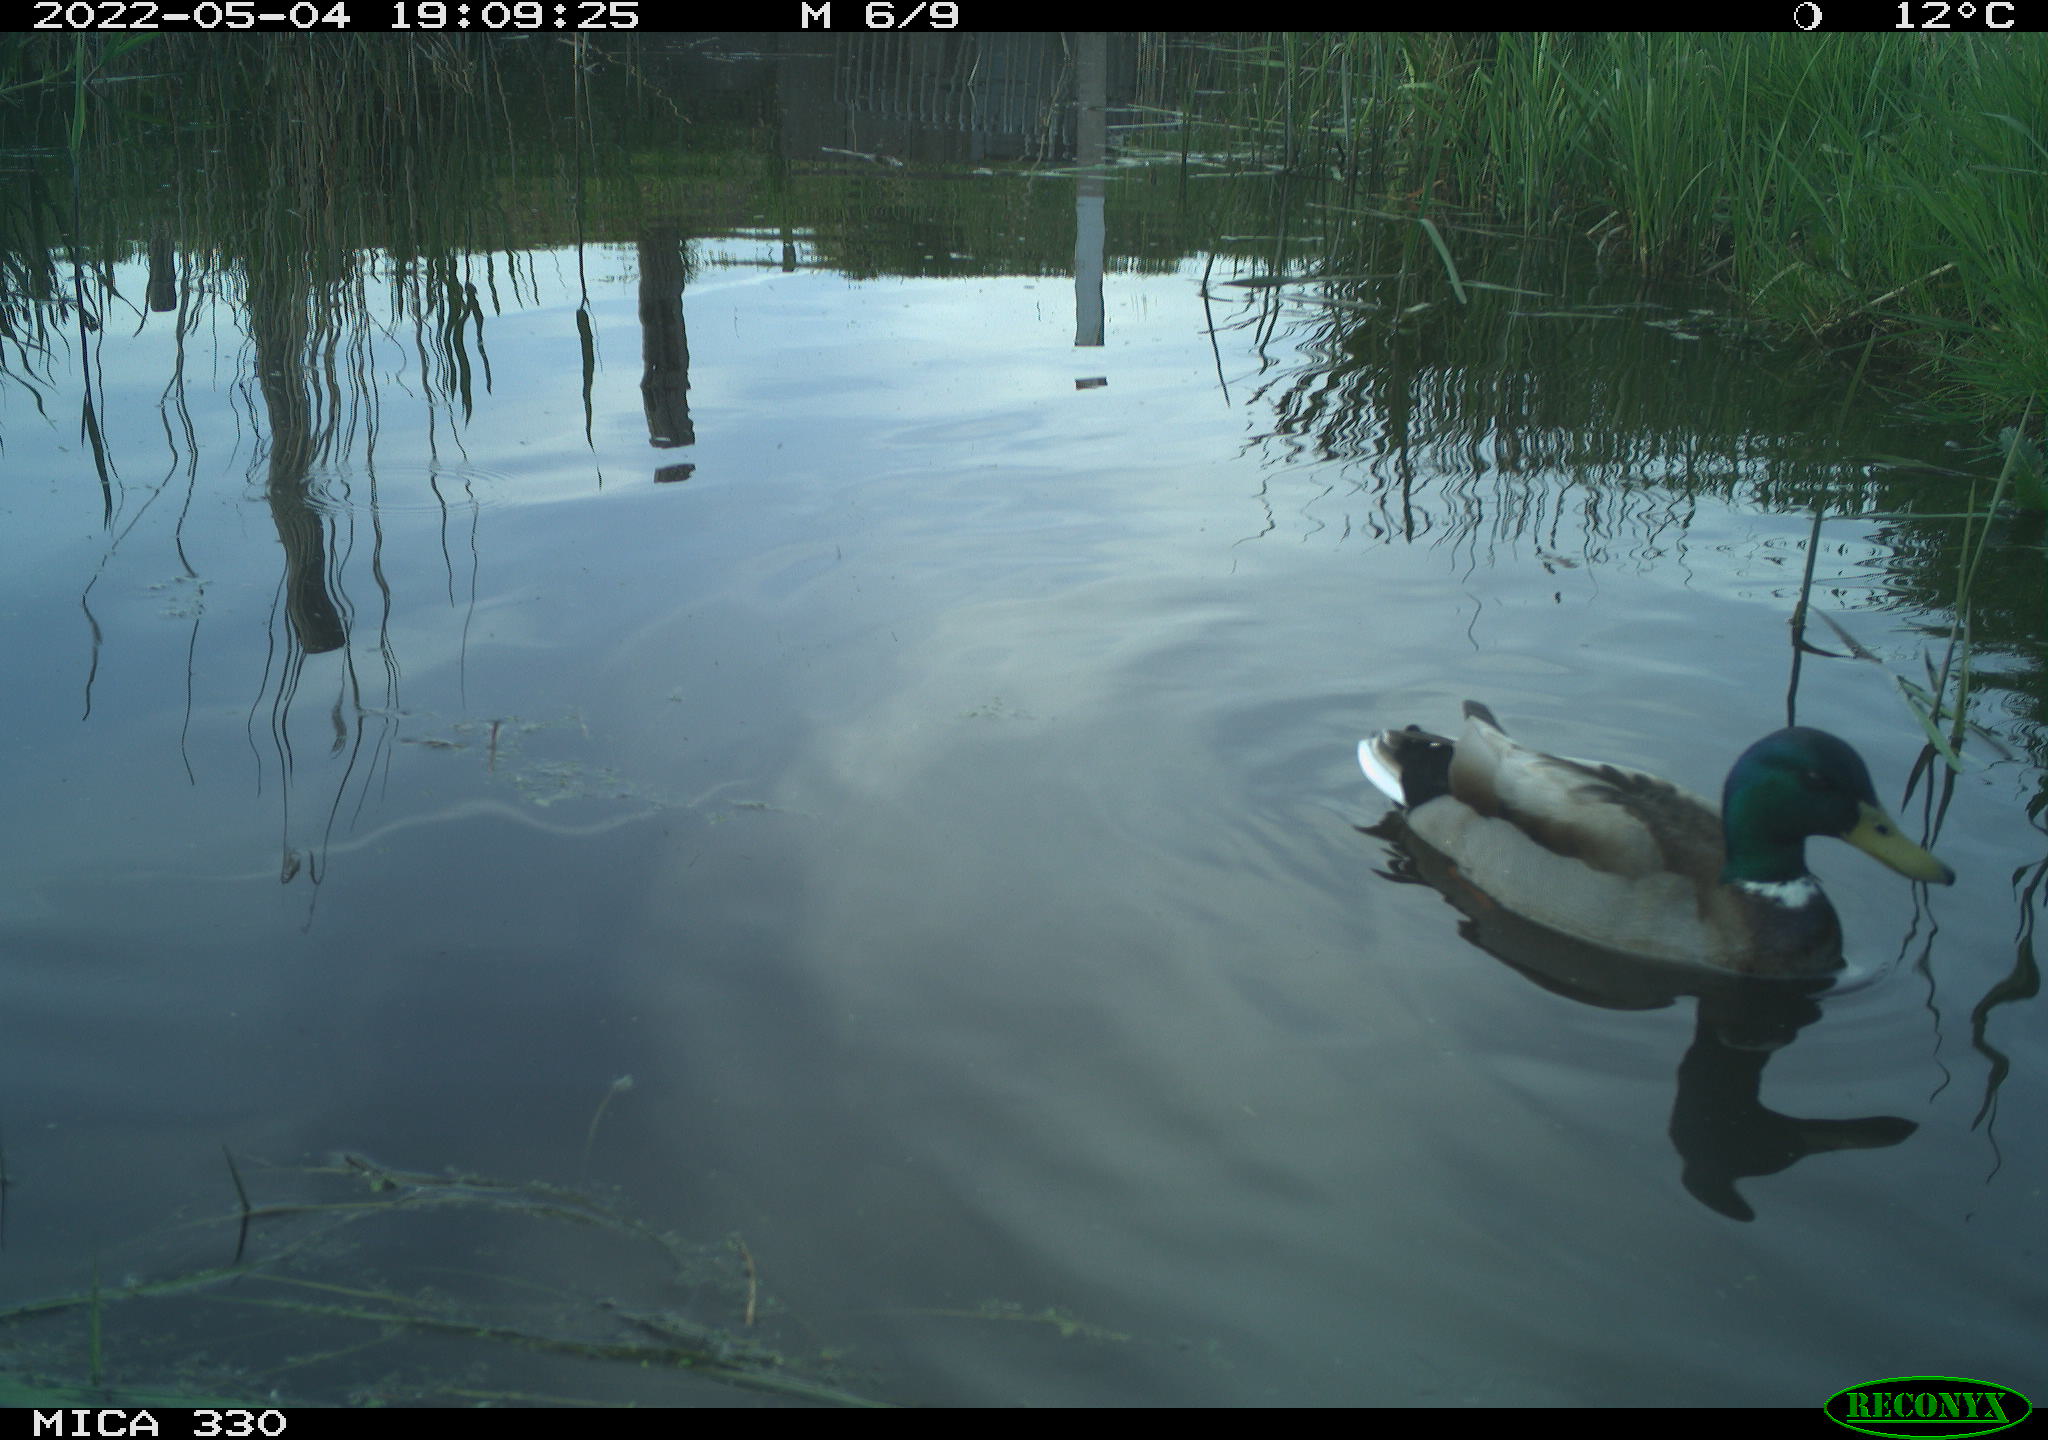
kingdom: Animalia
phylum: Chordata
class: Aves
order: Anseriformes
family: Anatidae
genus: Anas
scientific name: Anas platyrhynchos
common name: Mallard
